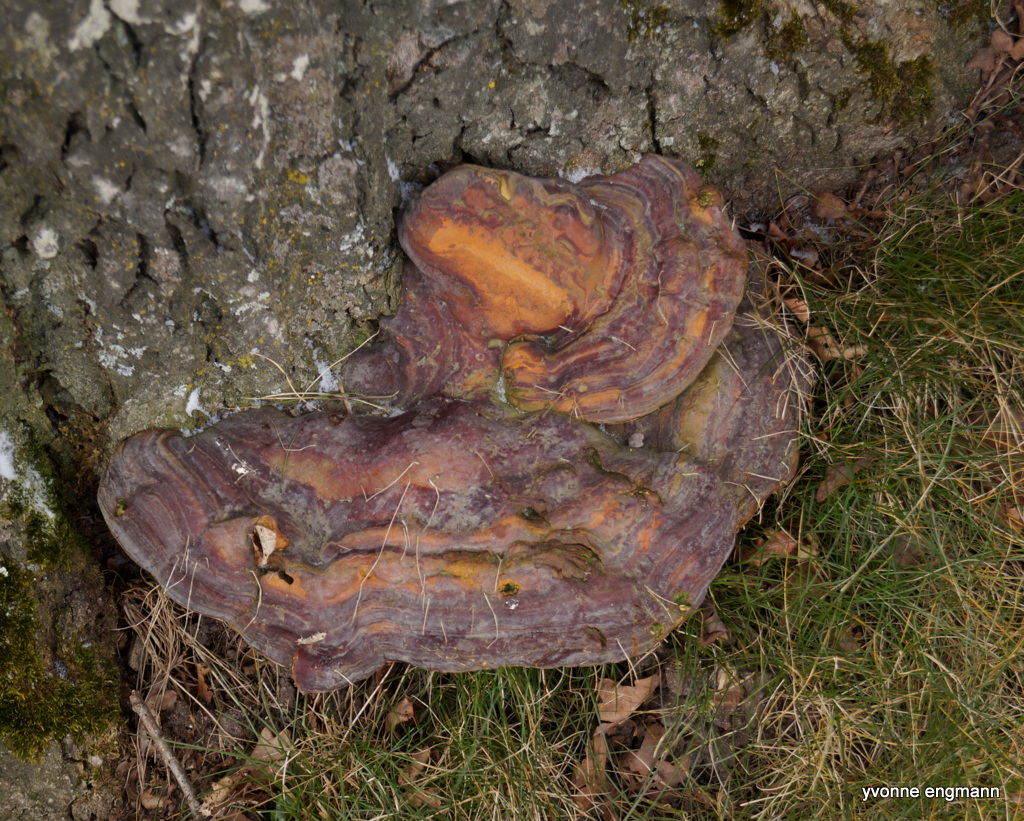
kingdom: Fungi
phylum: Basidiomycota
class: Agaricomycetes
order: Polyporales
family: Polyporaceae
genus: Ganoderma
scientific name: Ganoderma pfeifferi
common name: kobberrød lakporesvamp
